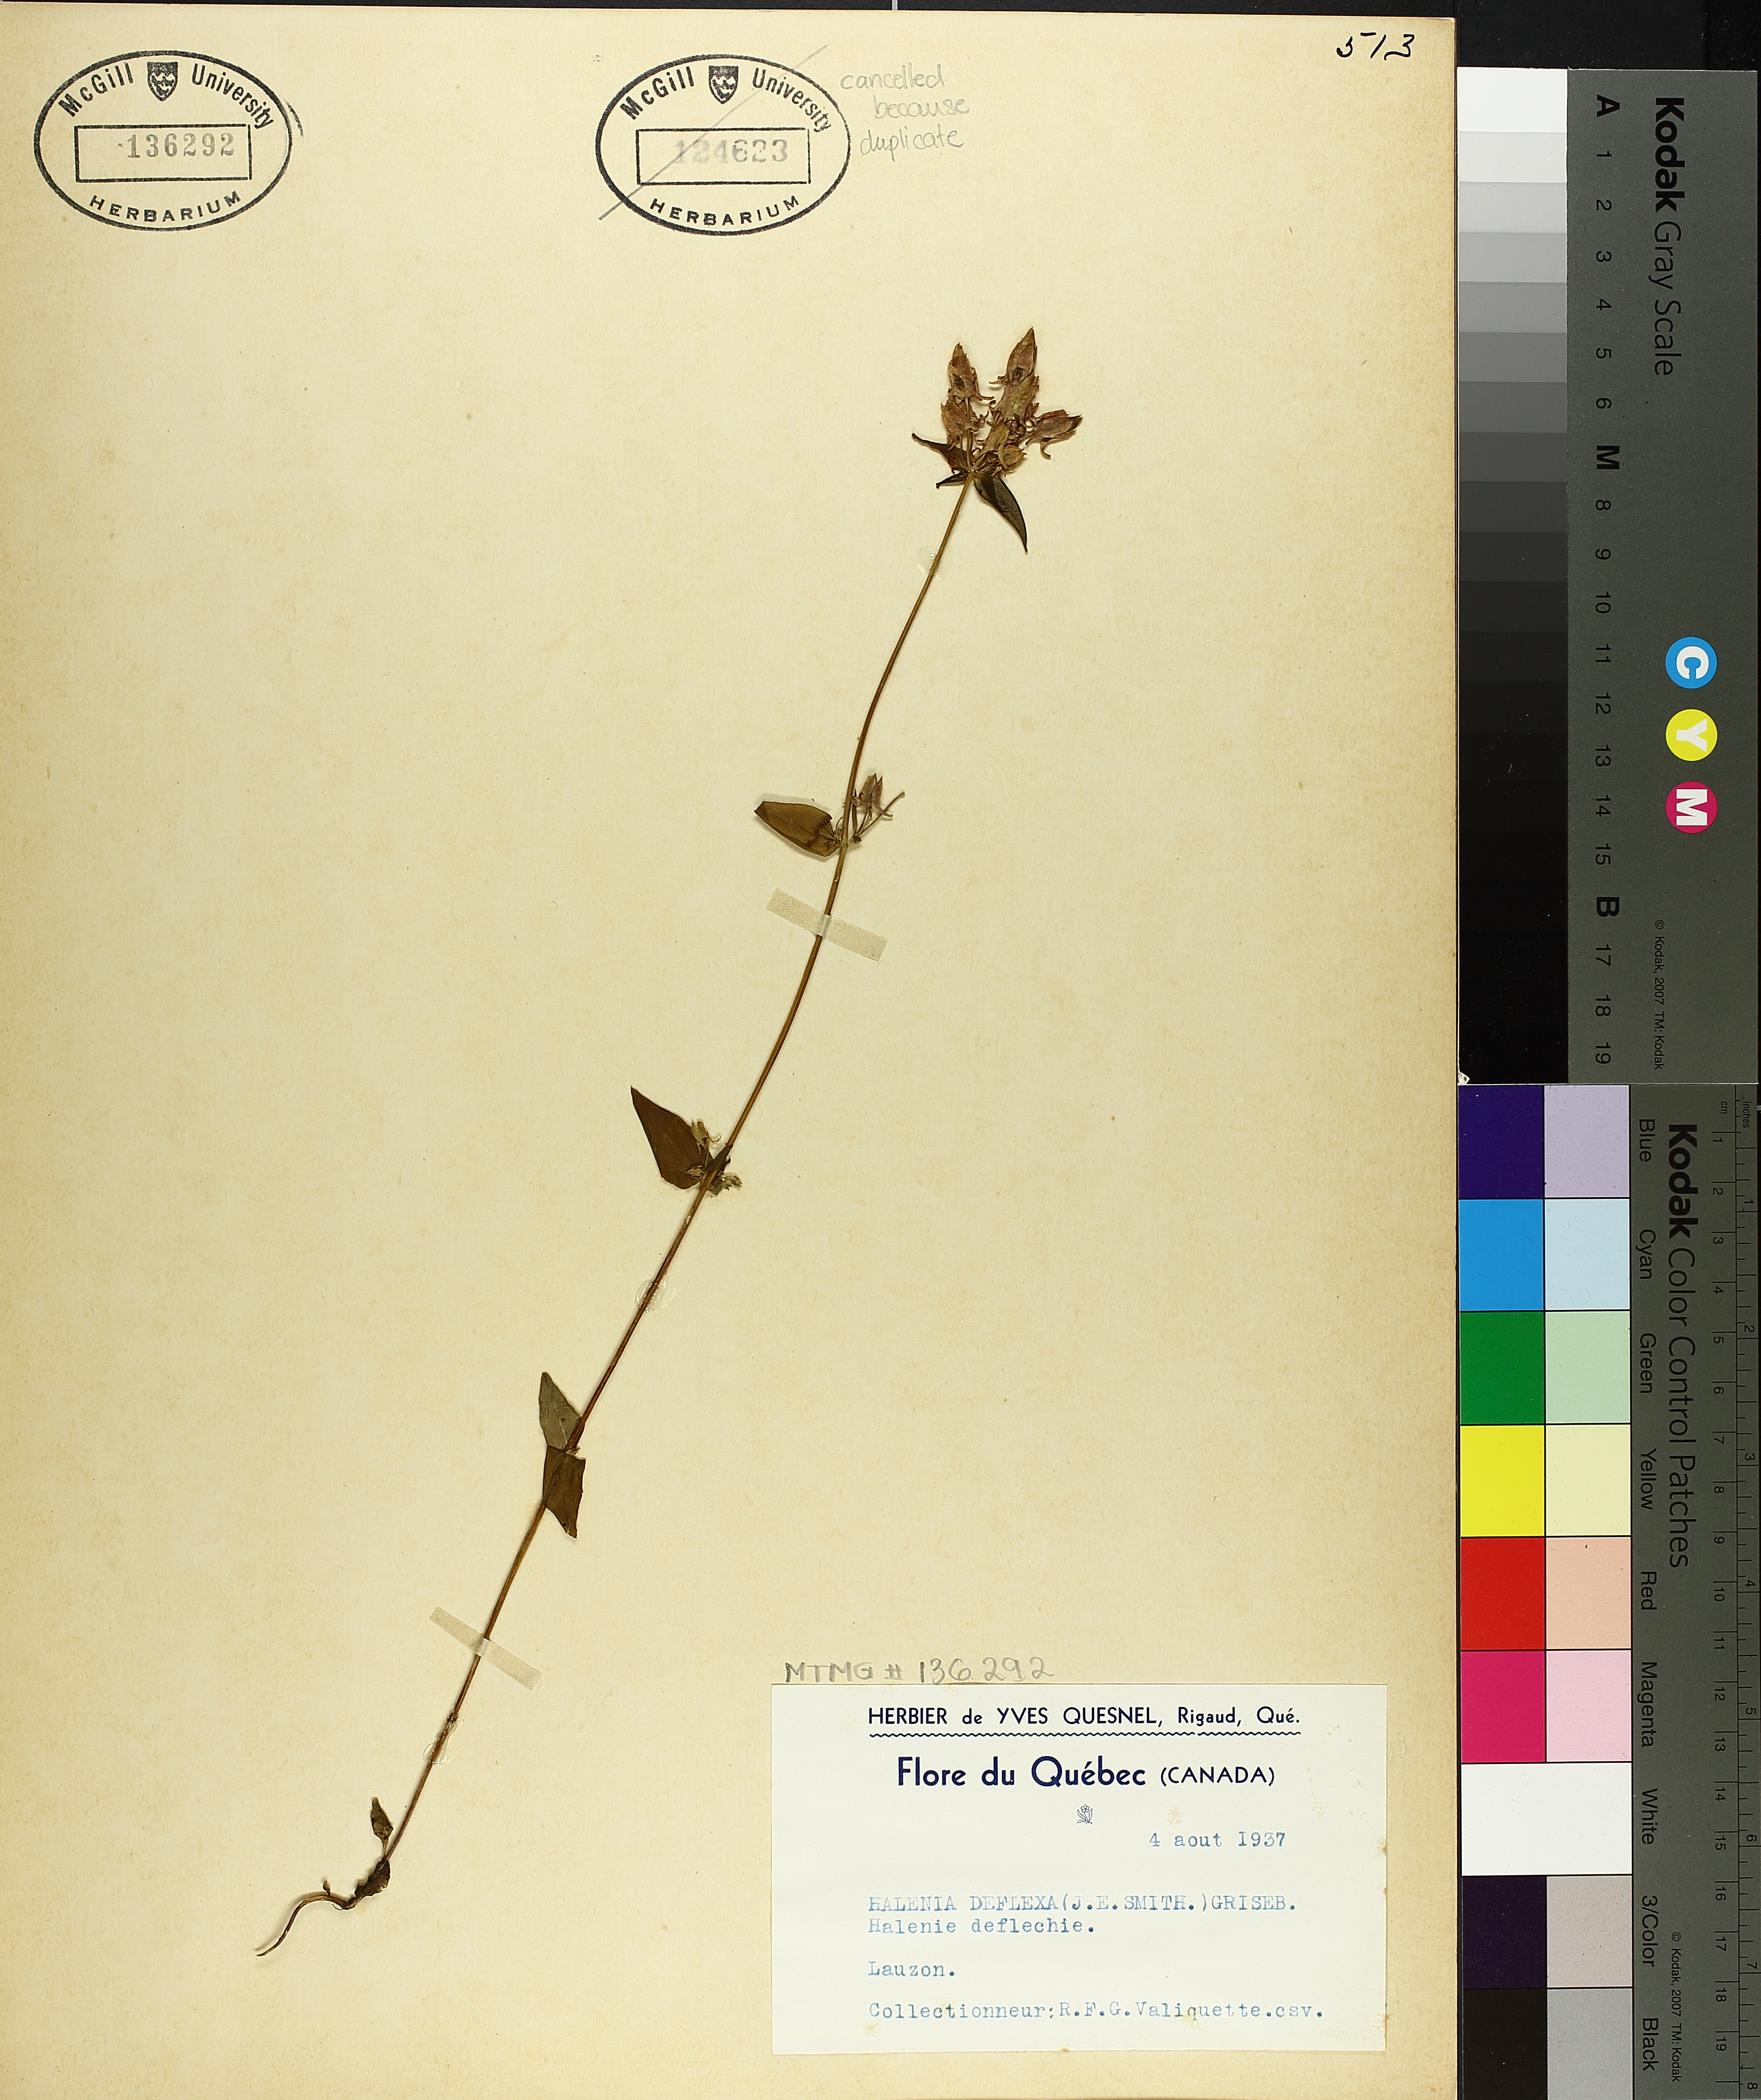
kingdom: Plantae
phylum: Tracheophyta
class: Magnoliopsida
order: Gentianales
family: Gentianaceae
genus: Halenia
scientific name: Halenia deflexa
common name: American spurred gentian
